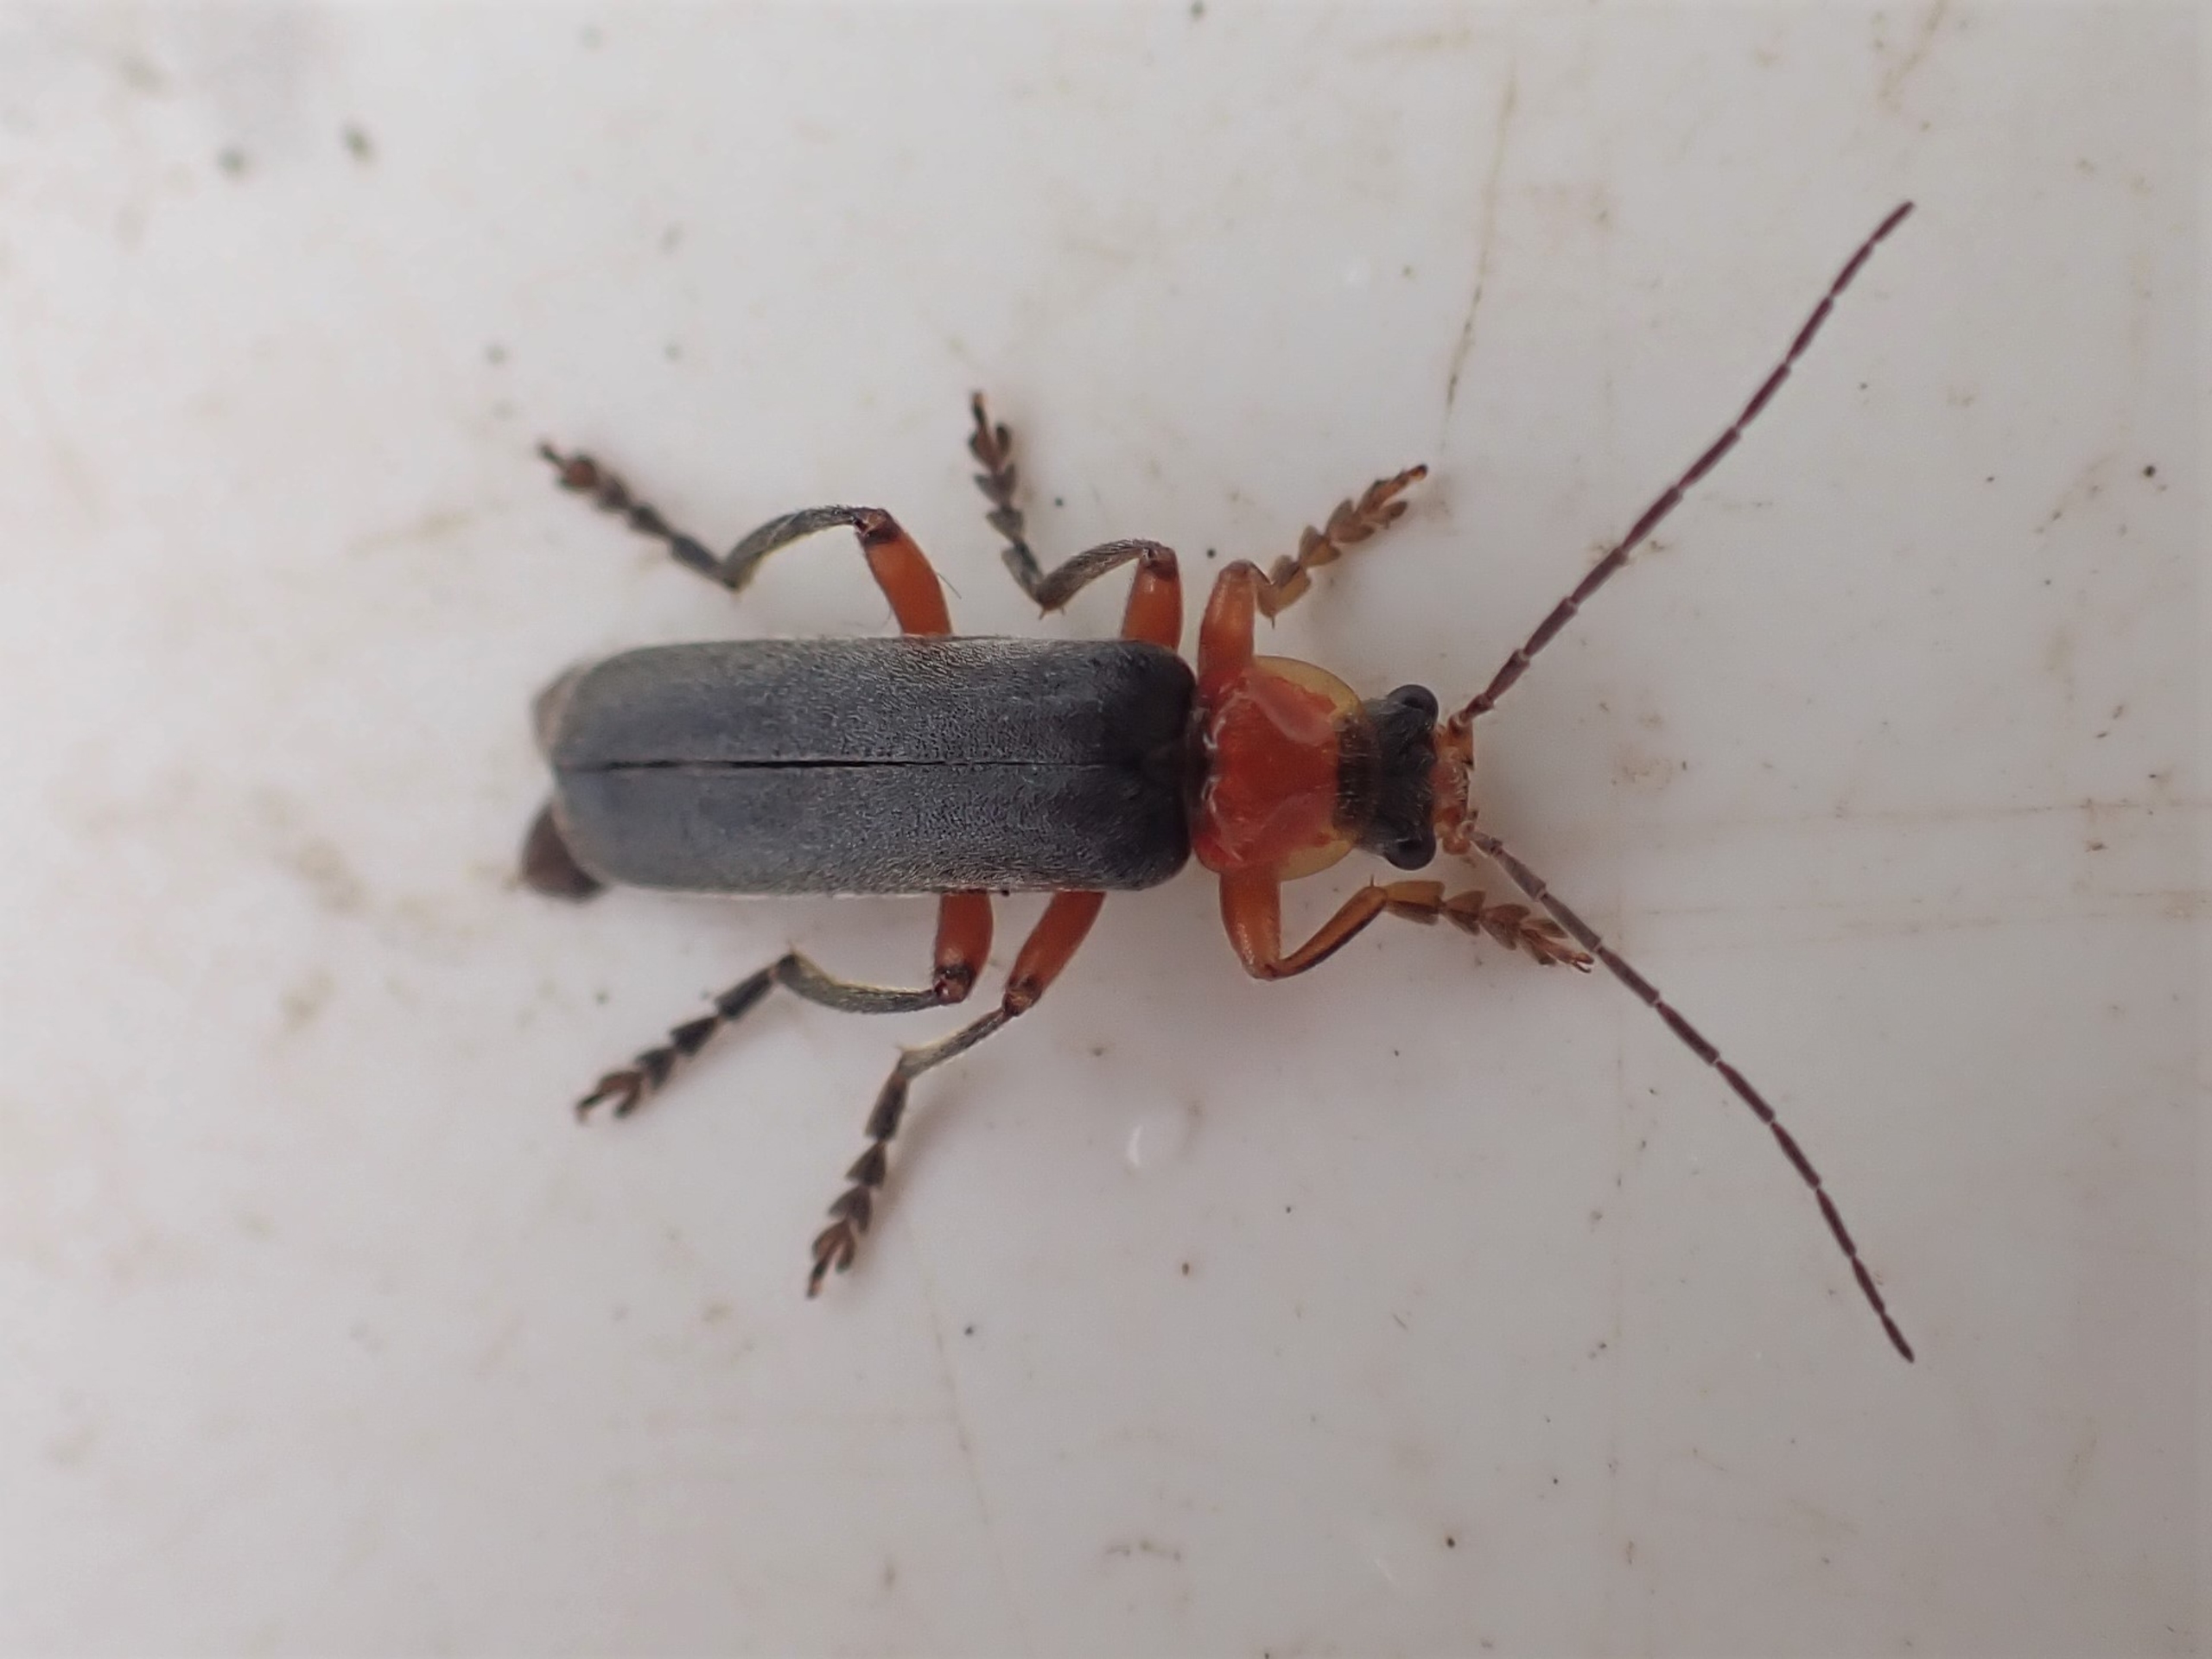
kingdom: Animalia
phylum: Arthropoda
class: Insecta
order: Coleoptera
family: Cantharidae
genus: Cantharis
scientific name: Cantharis pellucida
